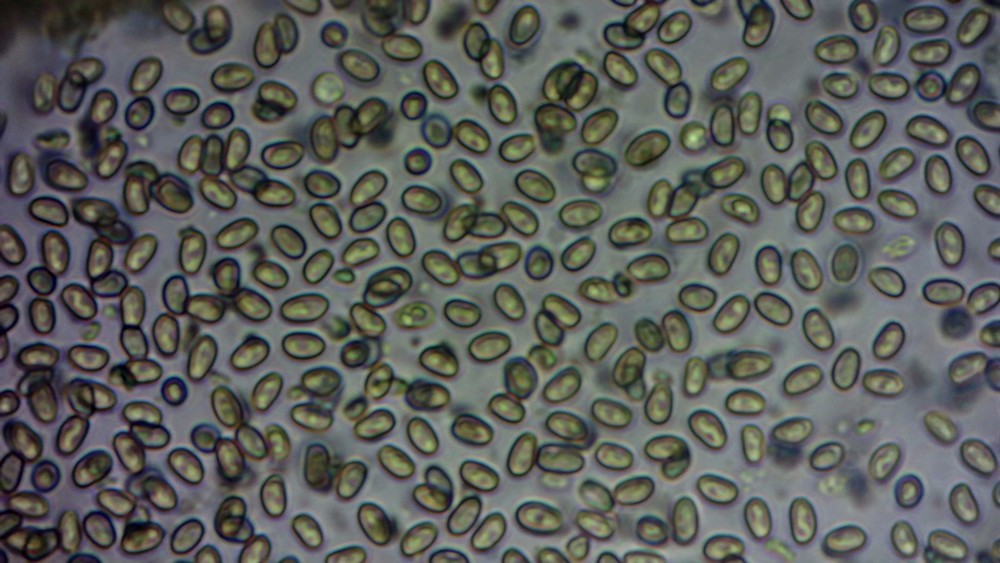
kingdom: Fungi
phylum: Basidiomycota
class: Agaricomycetes
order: Agaricales
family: Strophariaceae
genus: Pholiota
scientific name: Pholiota gummosa
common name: grøngul skælhat
